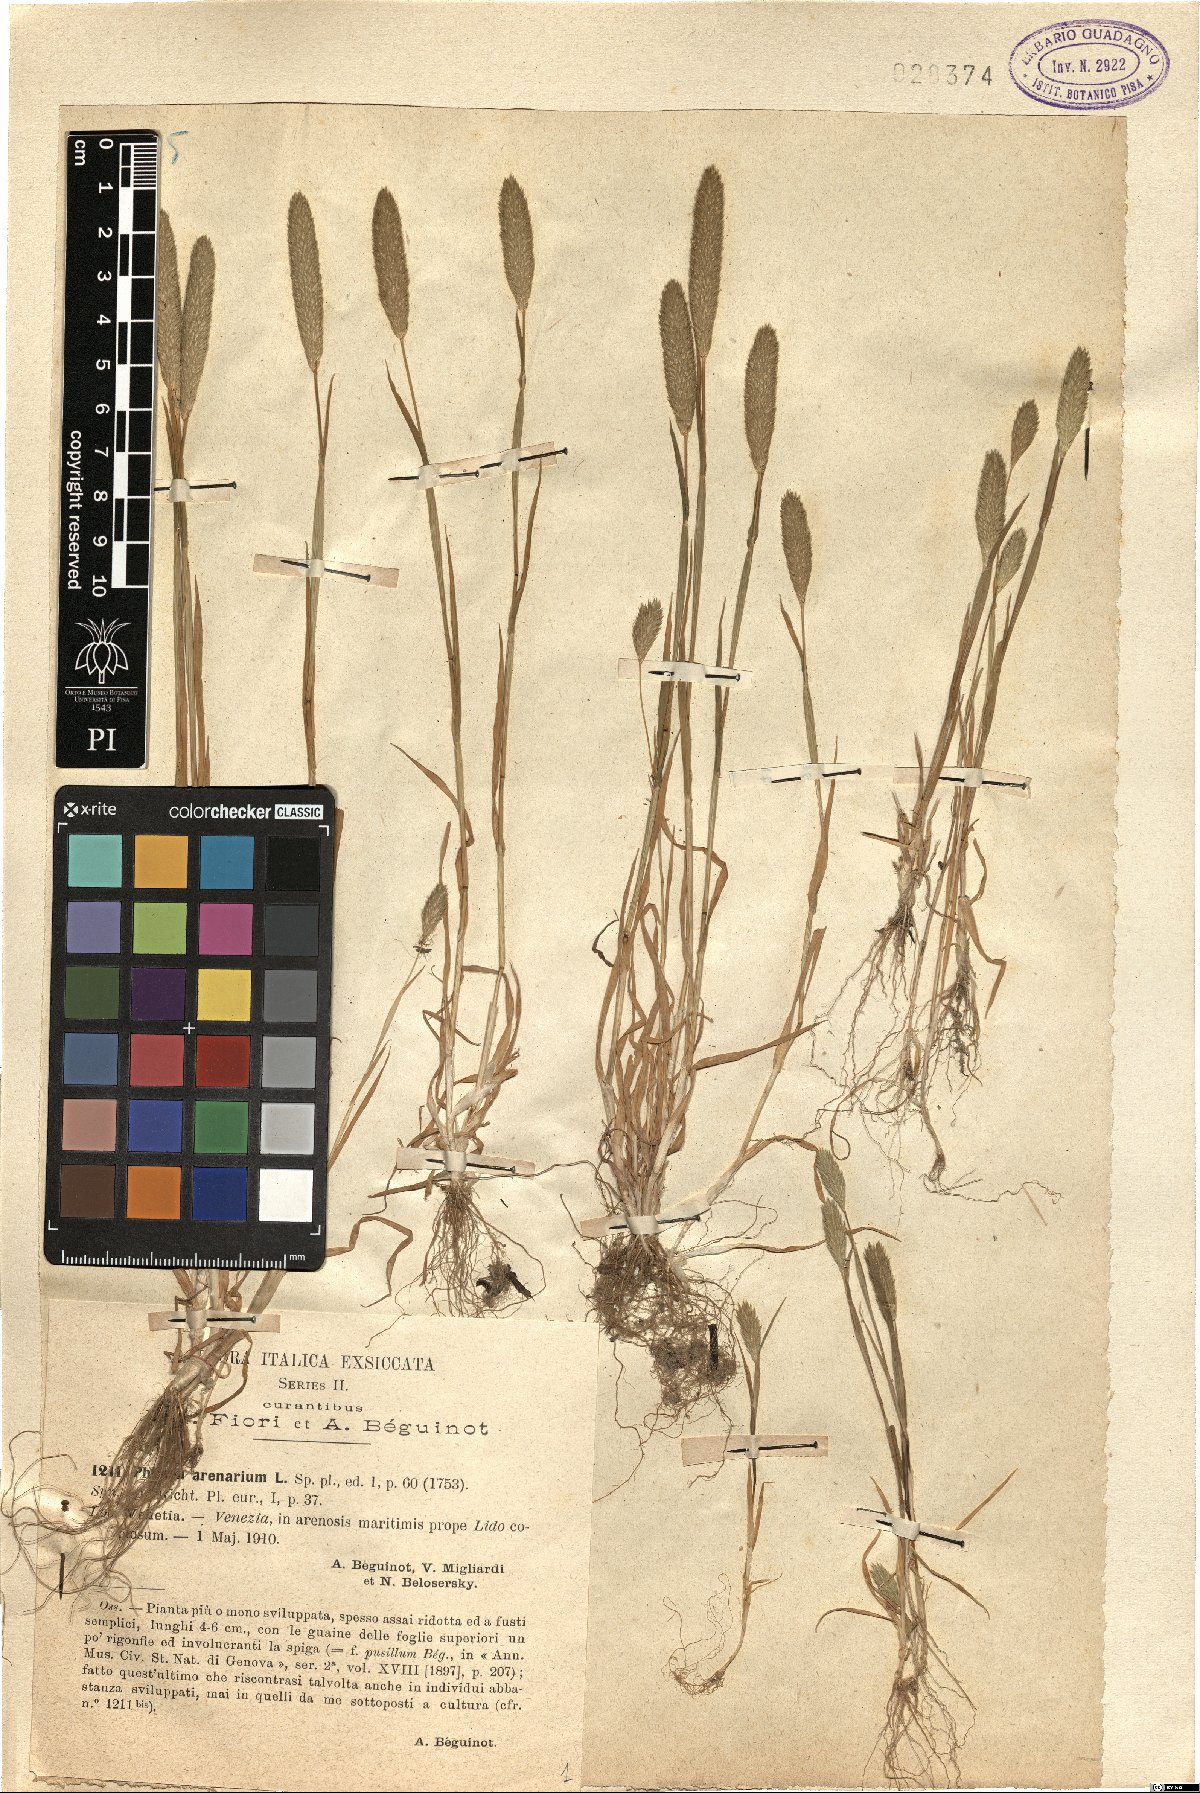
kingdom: Plantae
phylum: Tracheophyta
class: Liliopsida
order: Poales
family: Poaceae
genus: Phleum
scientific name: Phleum arenarium
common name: Sand cat's-tail
